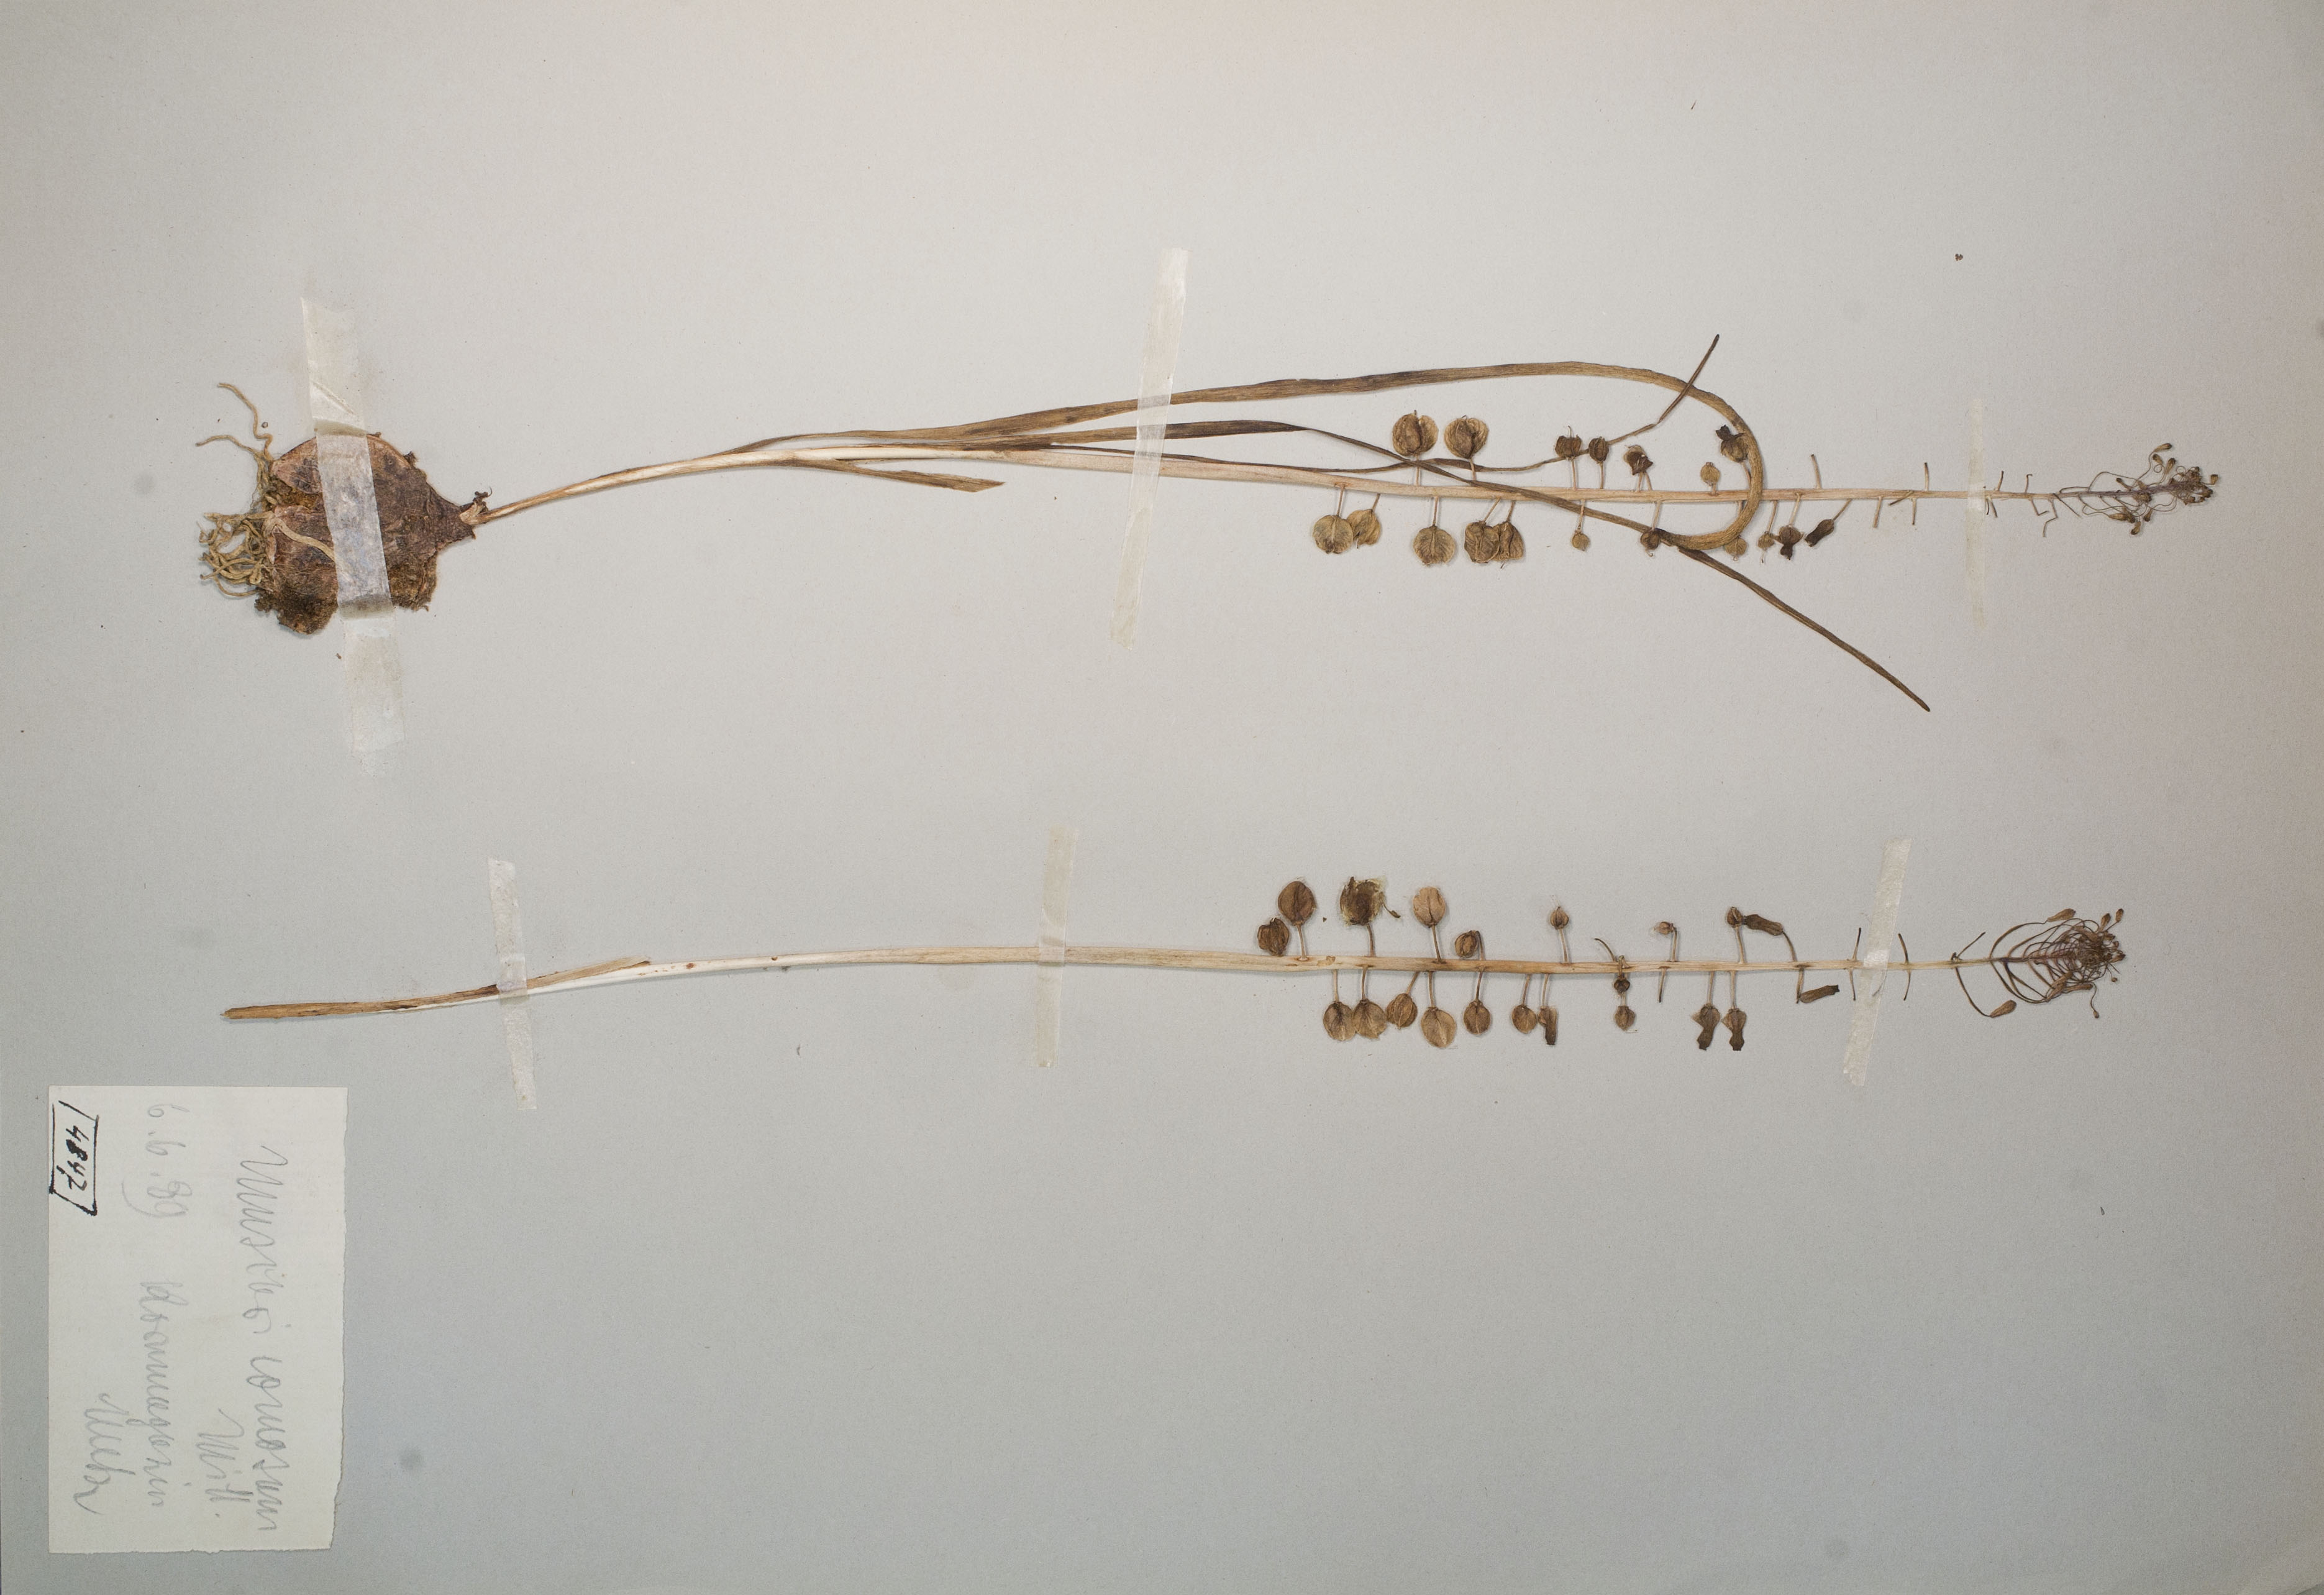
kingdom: Plantae
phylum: Tracheophyta
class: Liliopsida
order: Asparagales
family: Asparagaceae
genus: Muscari
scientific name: Muscari comosum
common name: Tassel hyacinth
